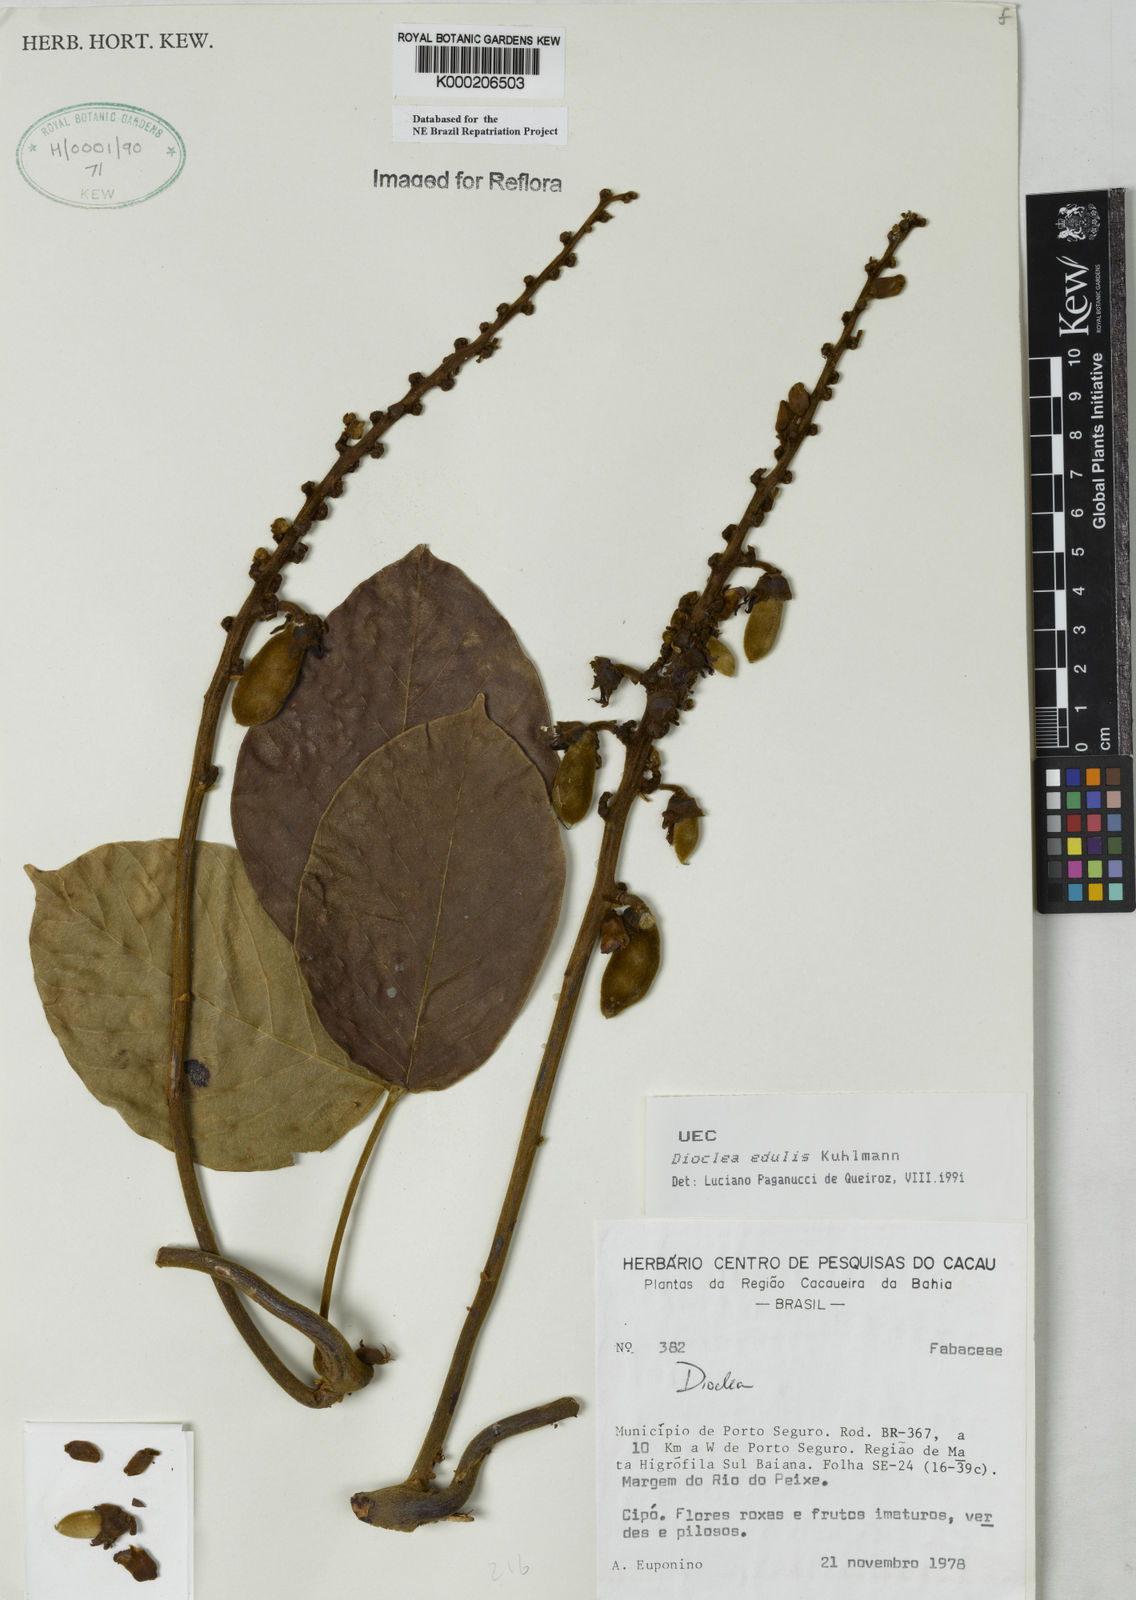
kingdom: Plantae
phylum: Tracheophyta
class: Magnoliopsida
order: Fabales
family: Fabaceae
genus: Macropsychanthus
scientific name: Macropsychanthus edulis
